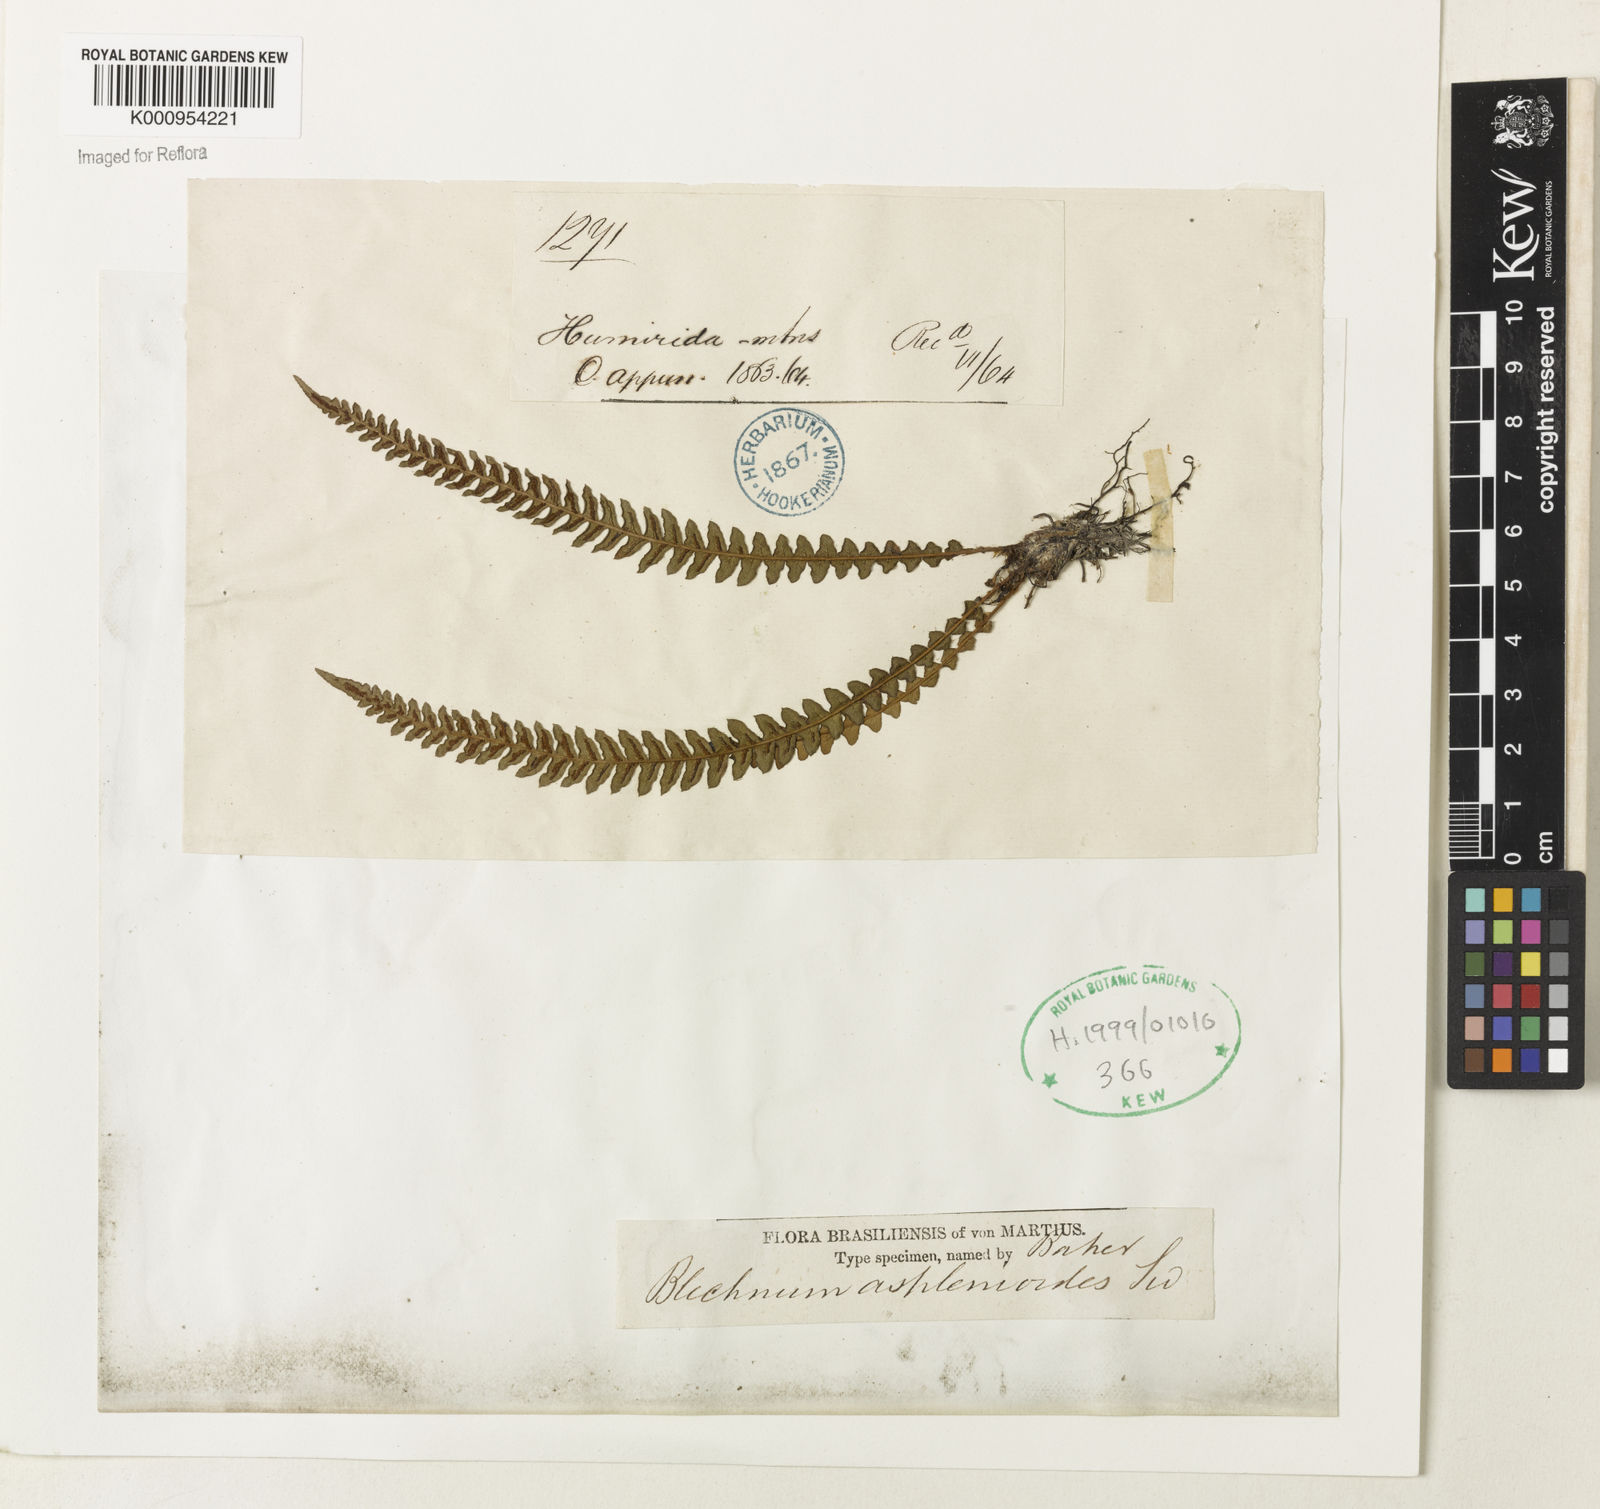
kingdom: Plantae
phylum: Tracheophyta
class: Polypodiopsida
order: Polypodiales
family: Blechnaceae
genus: Blechnum
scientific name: Blechnum asplenioides
